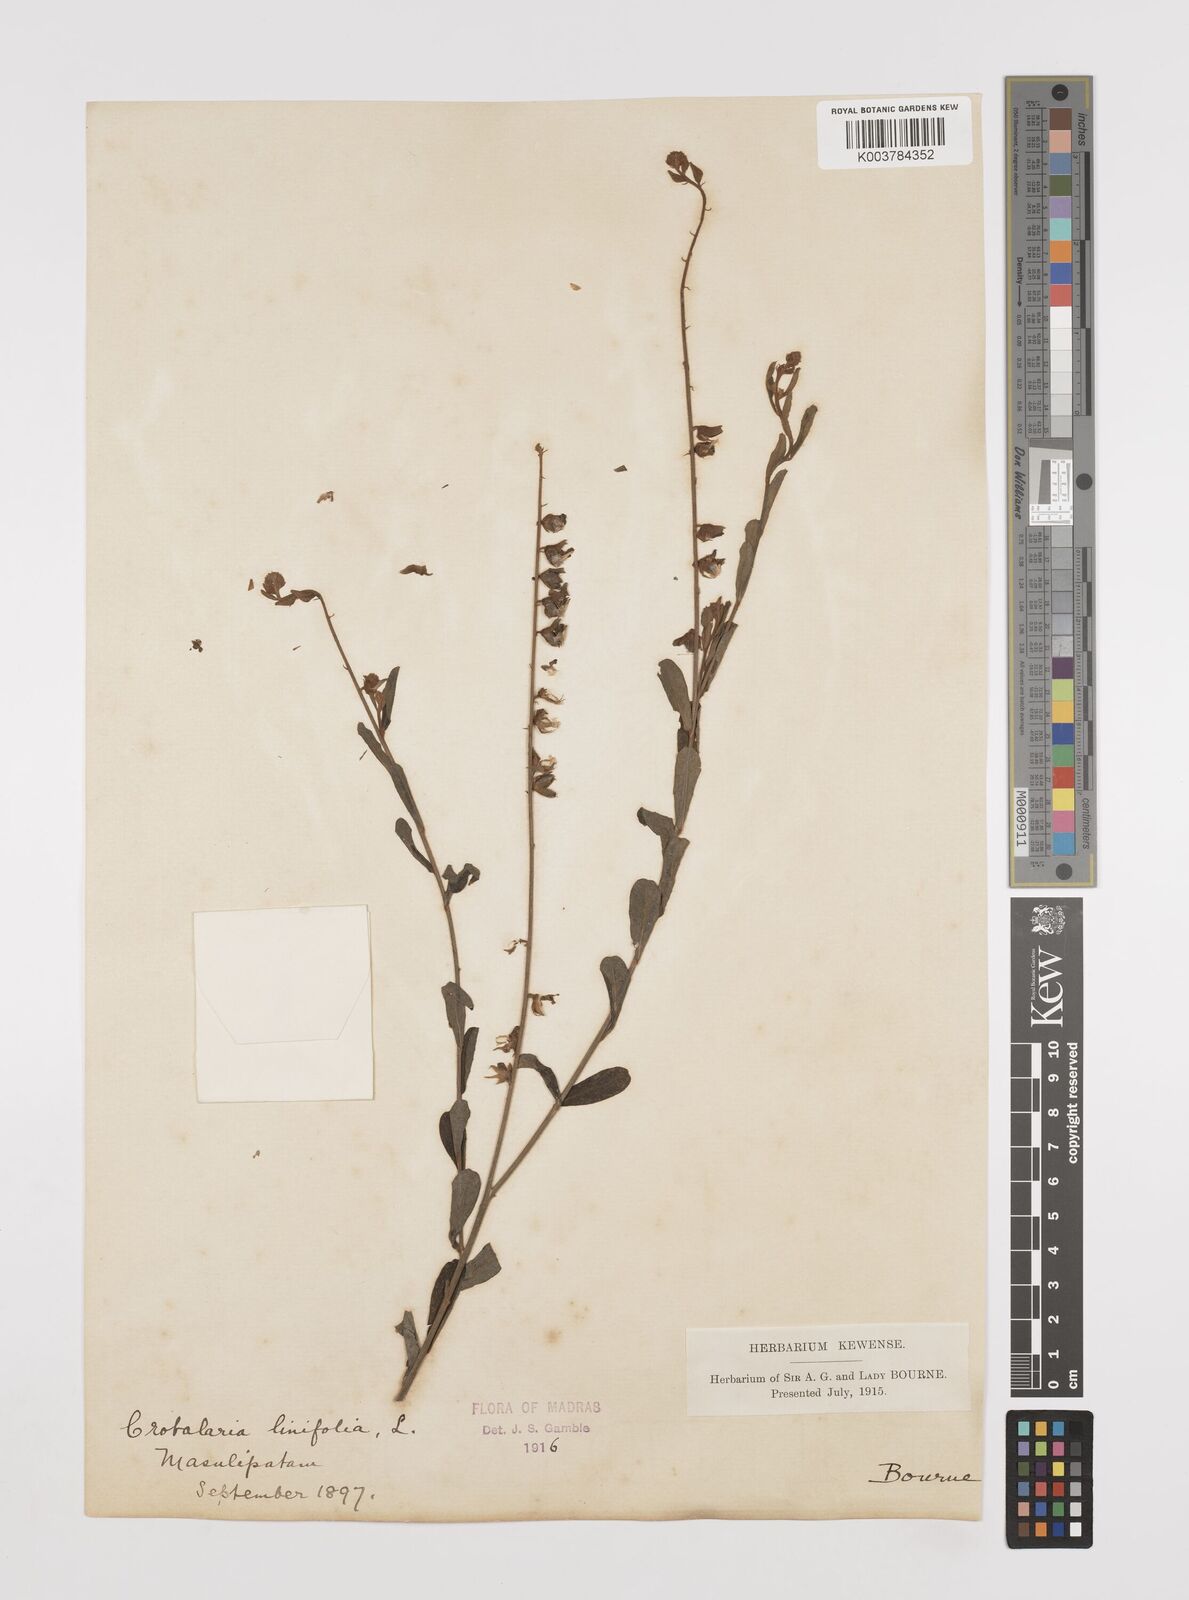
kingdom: Plantae
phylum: Tracheophyta
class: Magnoliopsida
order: Fabales
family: Fabaceae
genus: Crotalaria
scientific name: Crotalaria linifolia
